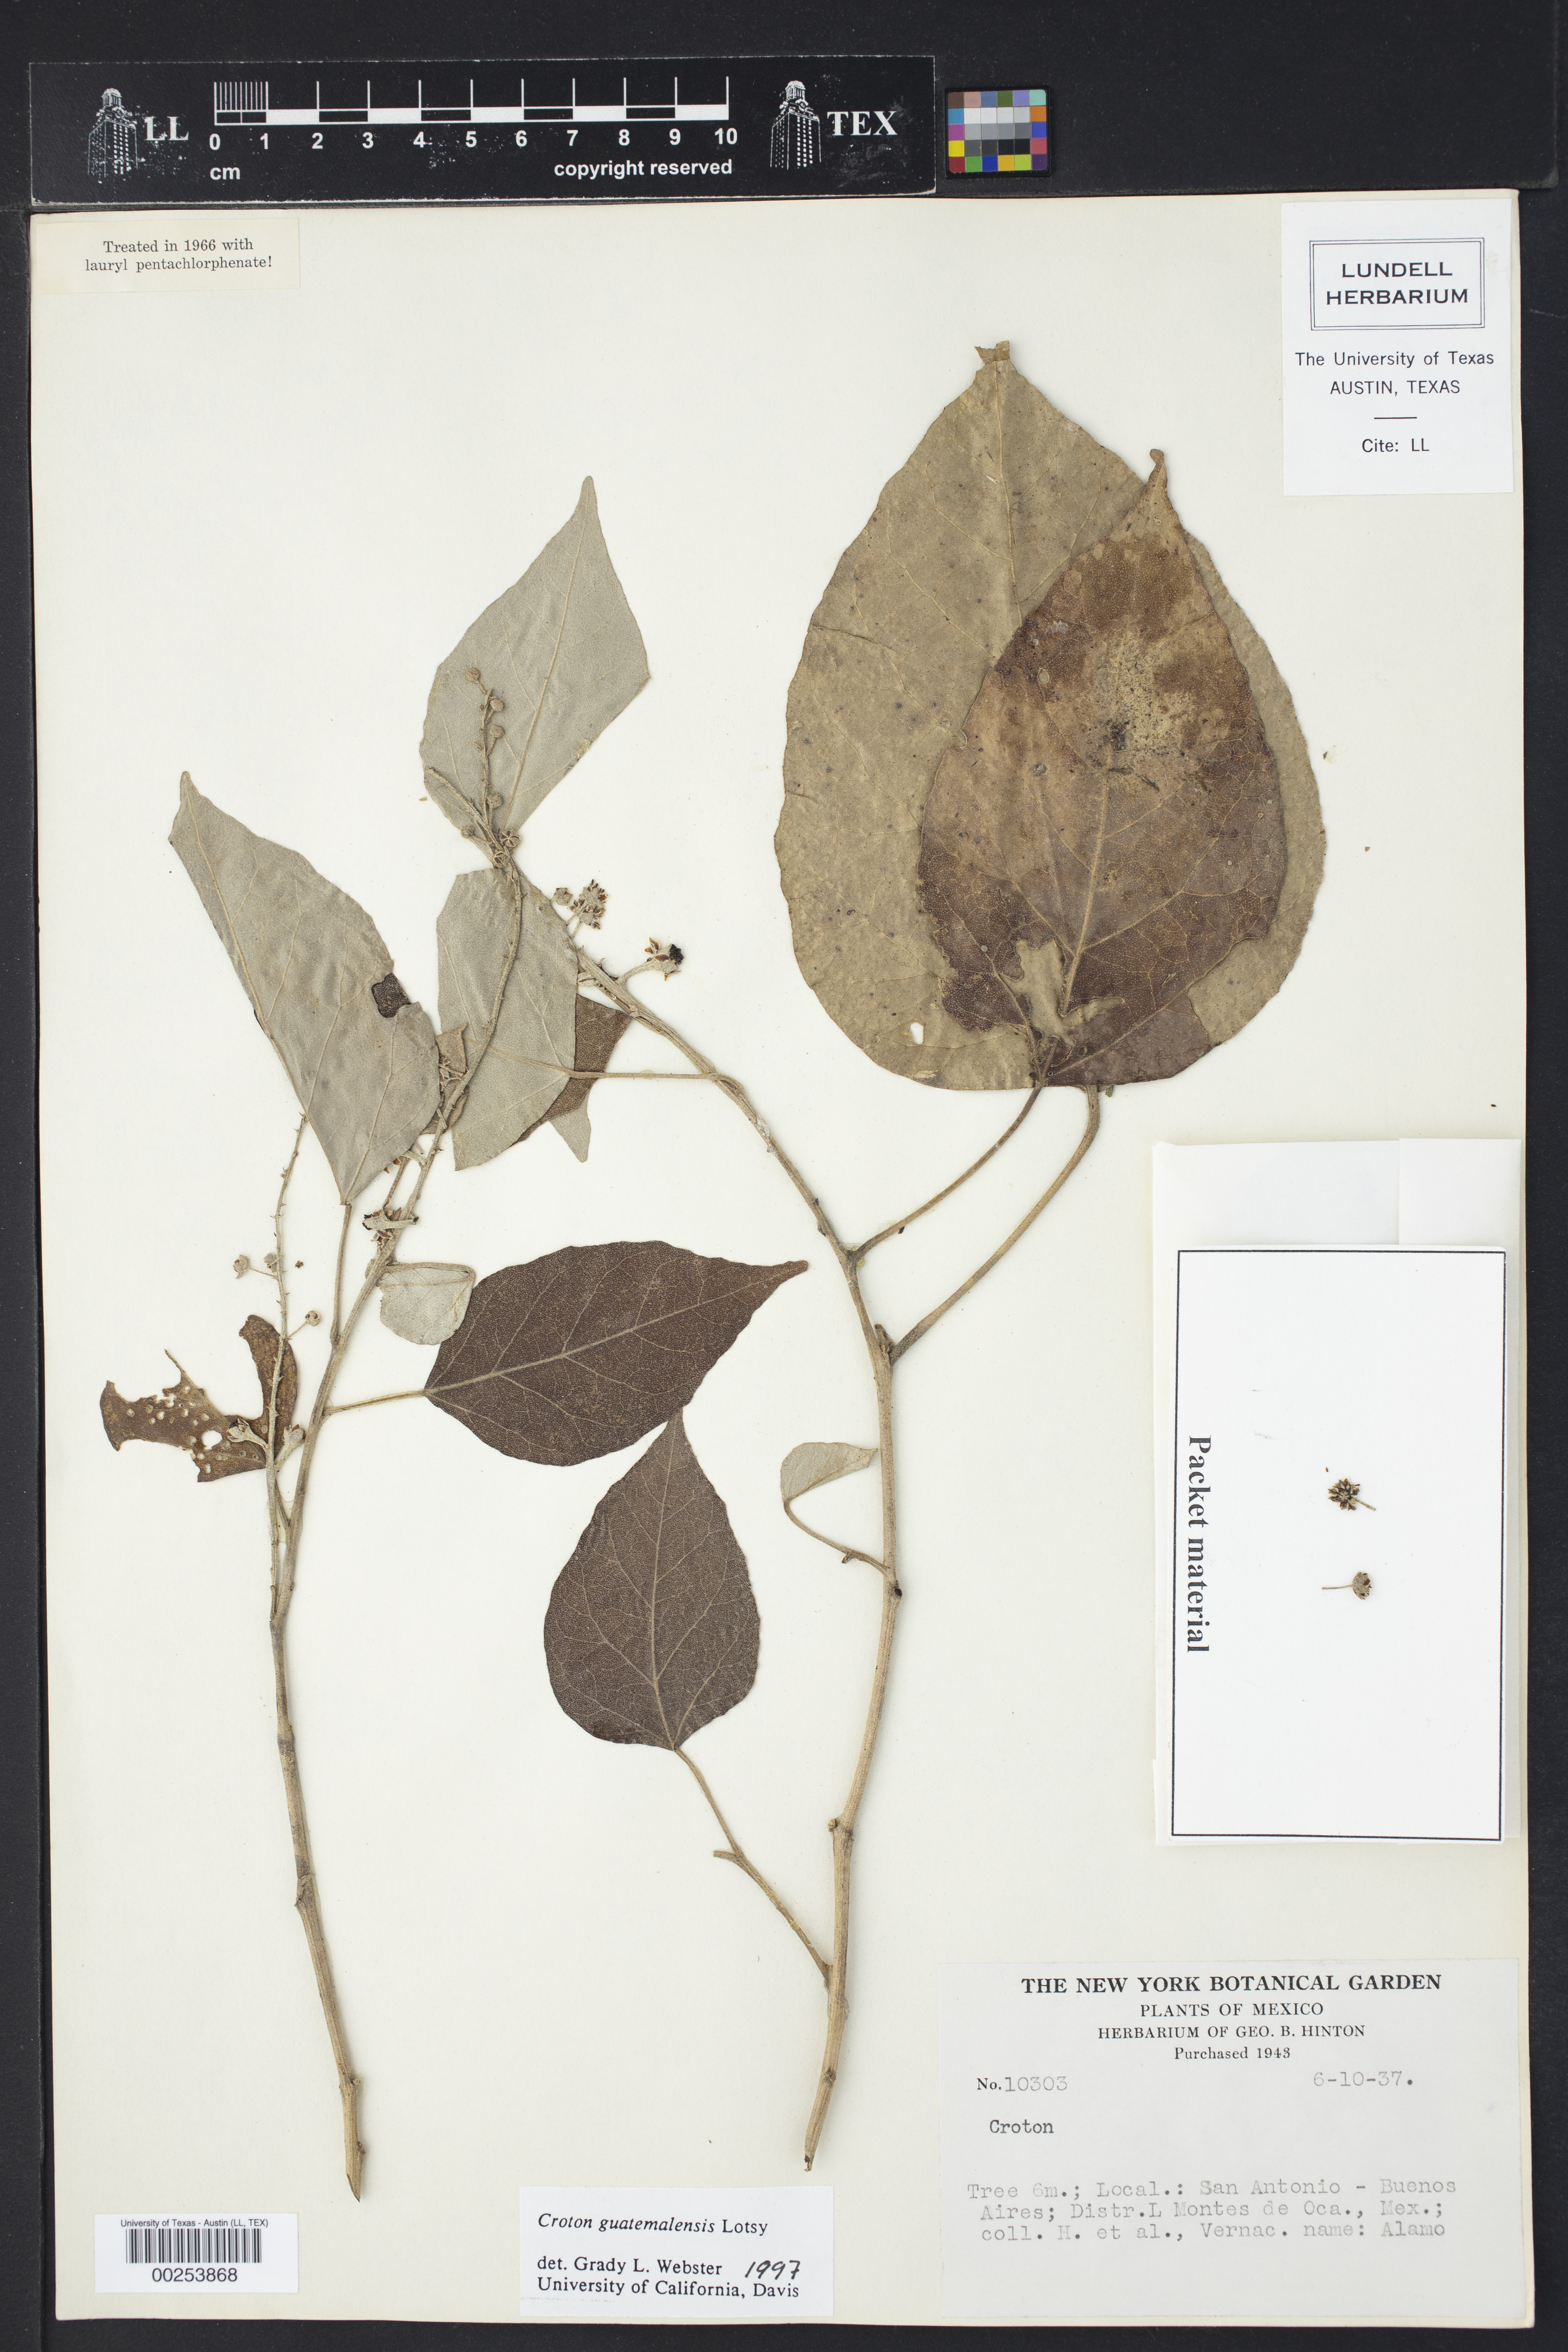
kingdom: Plantae
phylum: Tracheophyta
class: Magnoliopsida
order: Malpighiales
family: Euphorbiaceae
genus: Croton
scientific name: Croton guatemalensis
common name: Copalchi
